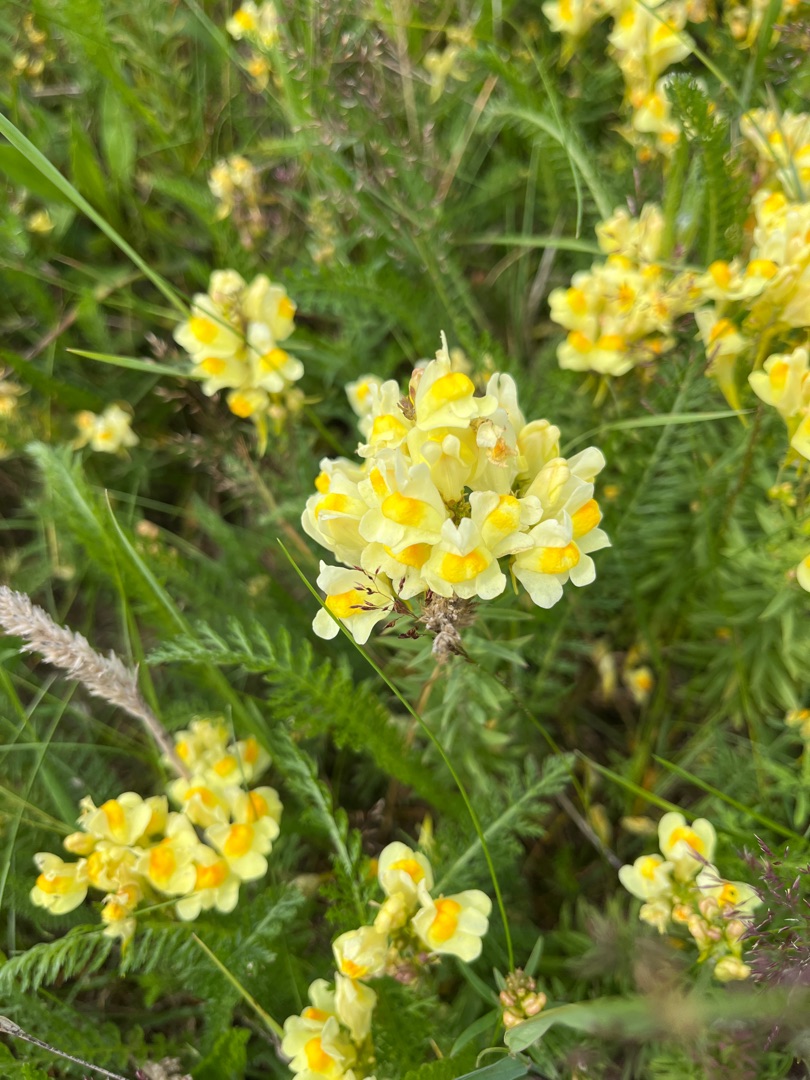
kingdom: Plantae
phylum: Tracheophyta
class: Magnoliopsida
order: Lamiales
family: Plantaginaceae
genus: Linaria
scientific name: Linaria vulgaris
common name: Almindelig torskemund
